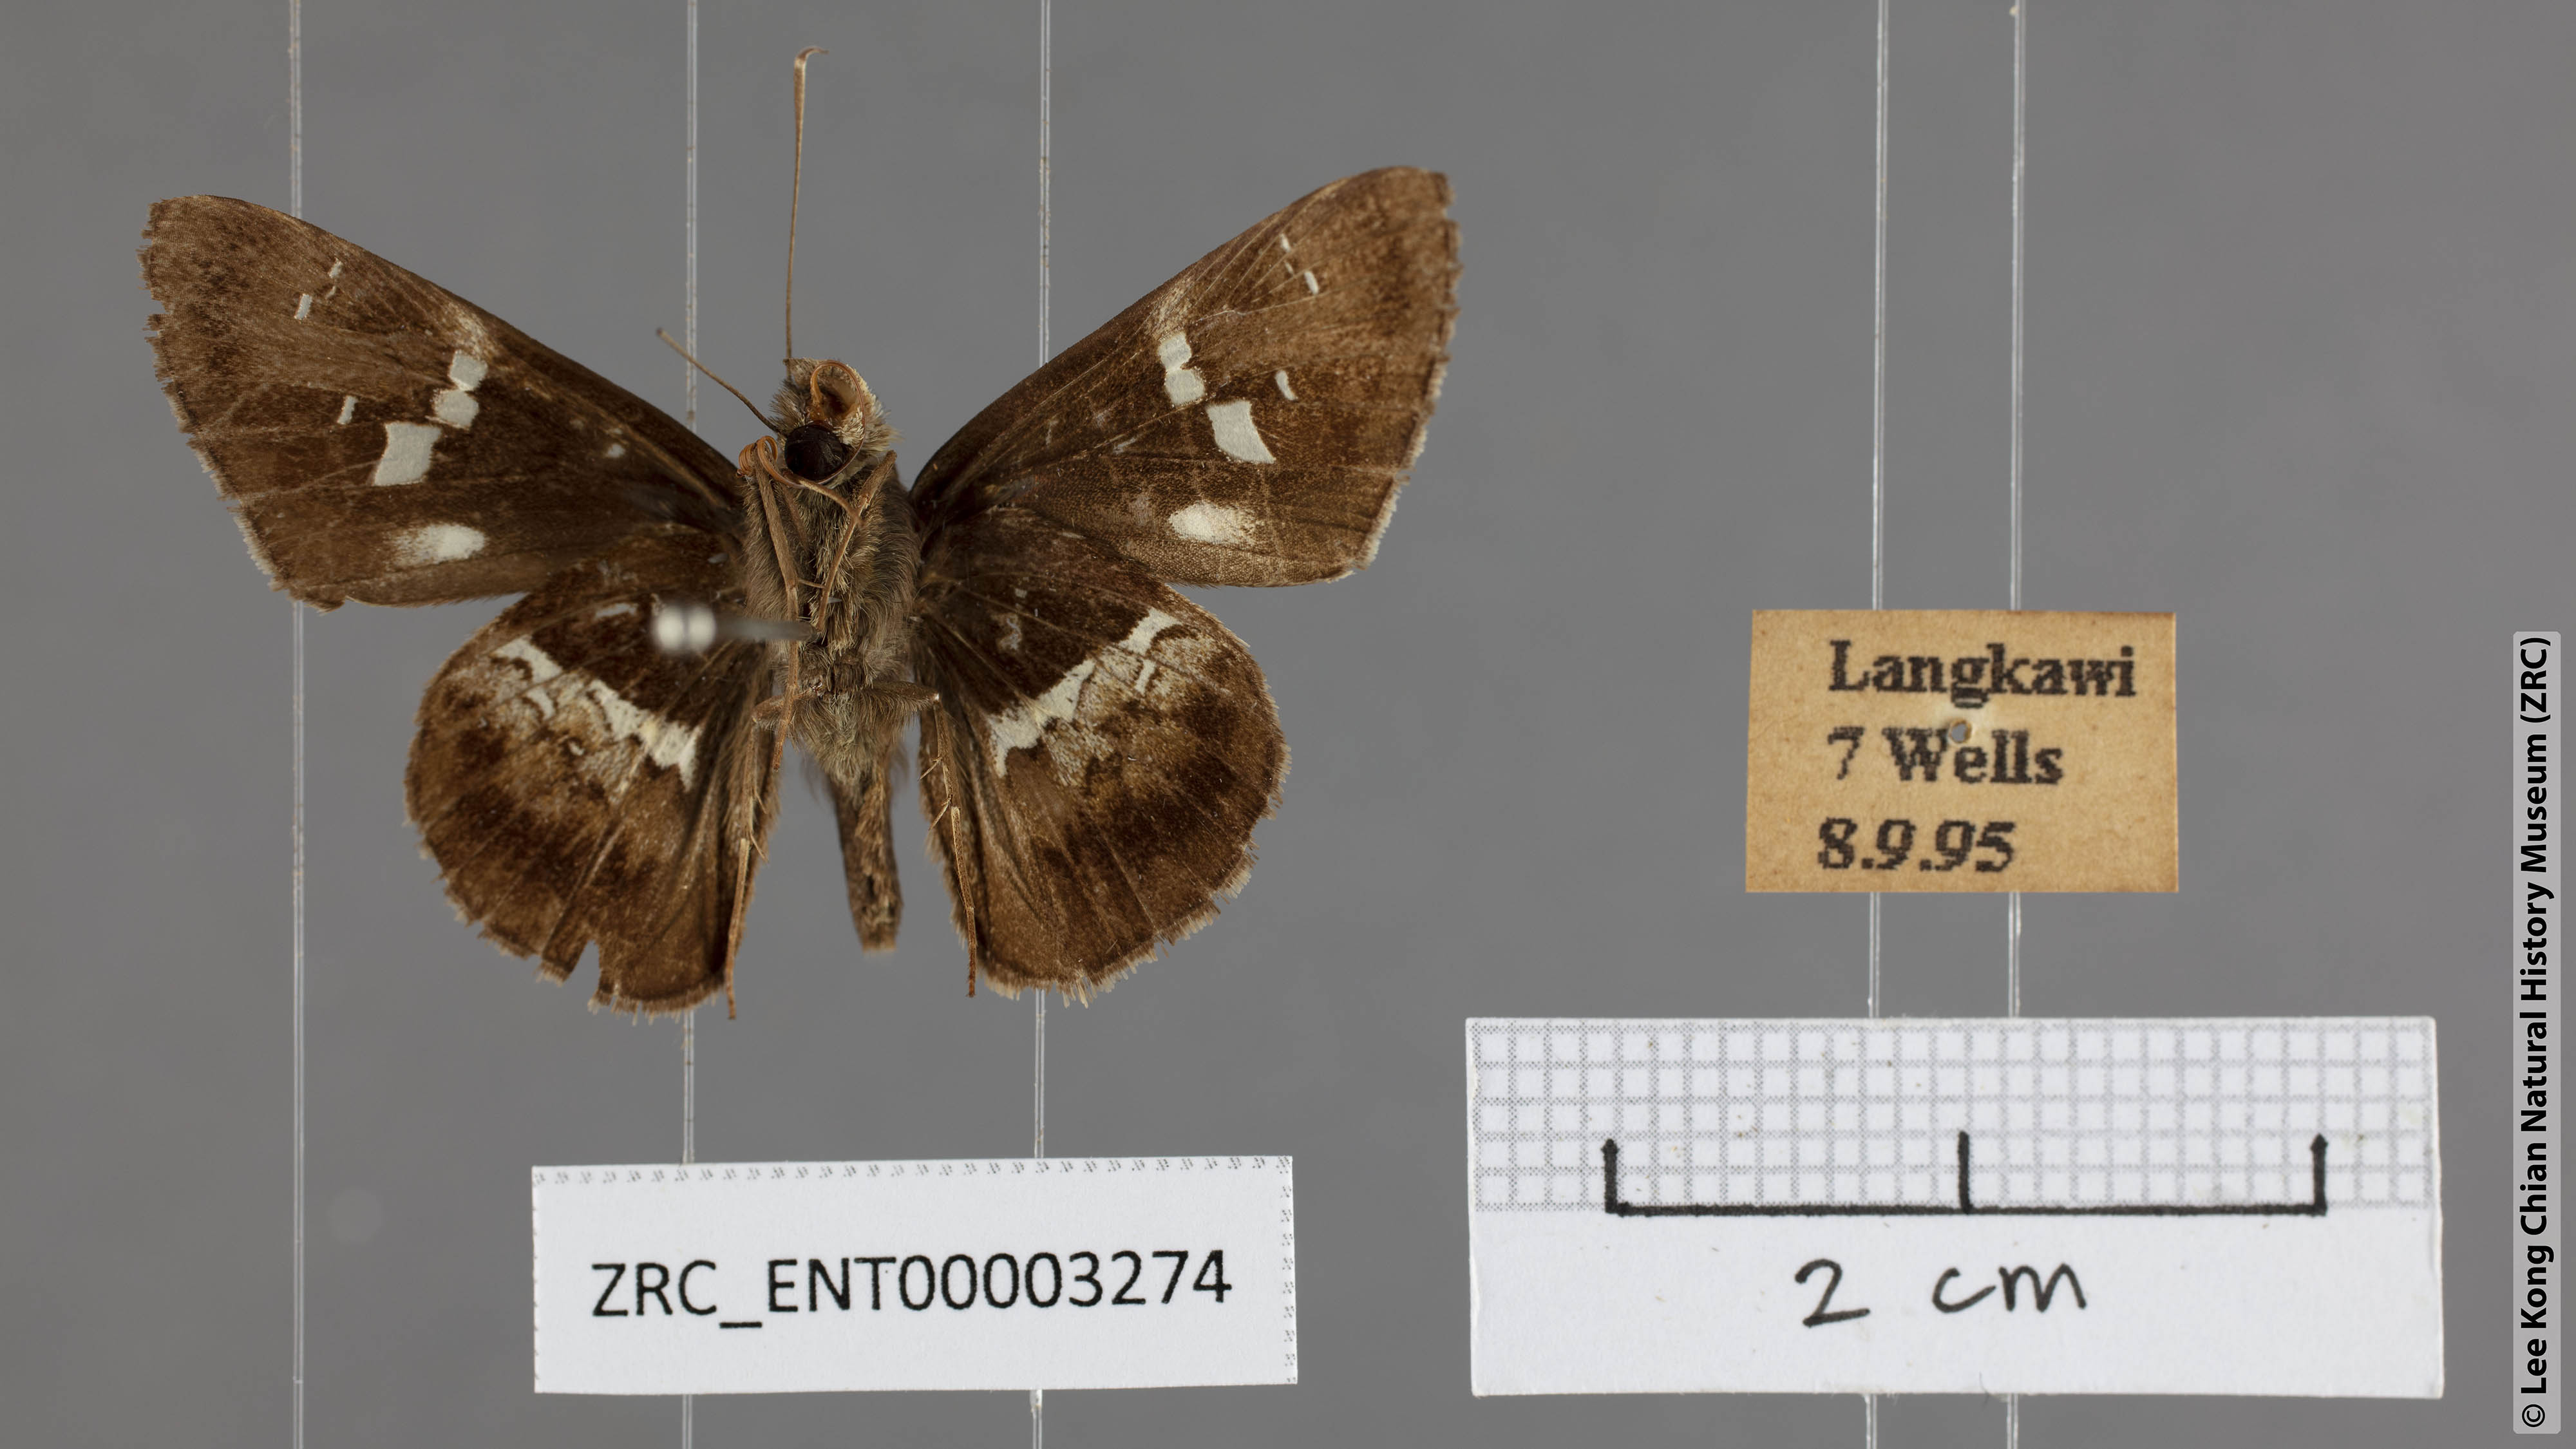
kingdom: Animalia
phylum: Arthropoda
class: Insecta
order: Lepidoptera
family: Hesperiidae
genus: Hyarotis
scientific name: Hyarotis adrastus
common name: Tree flitter
